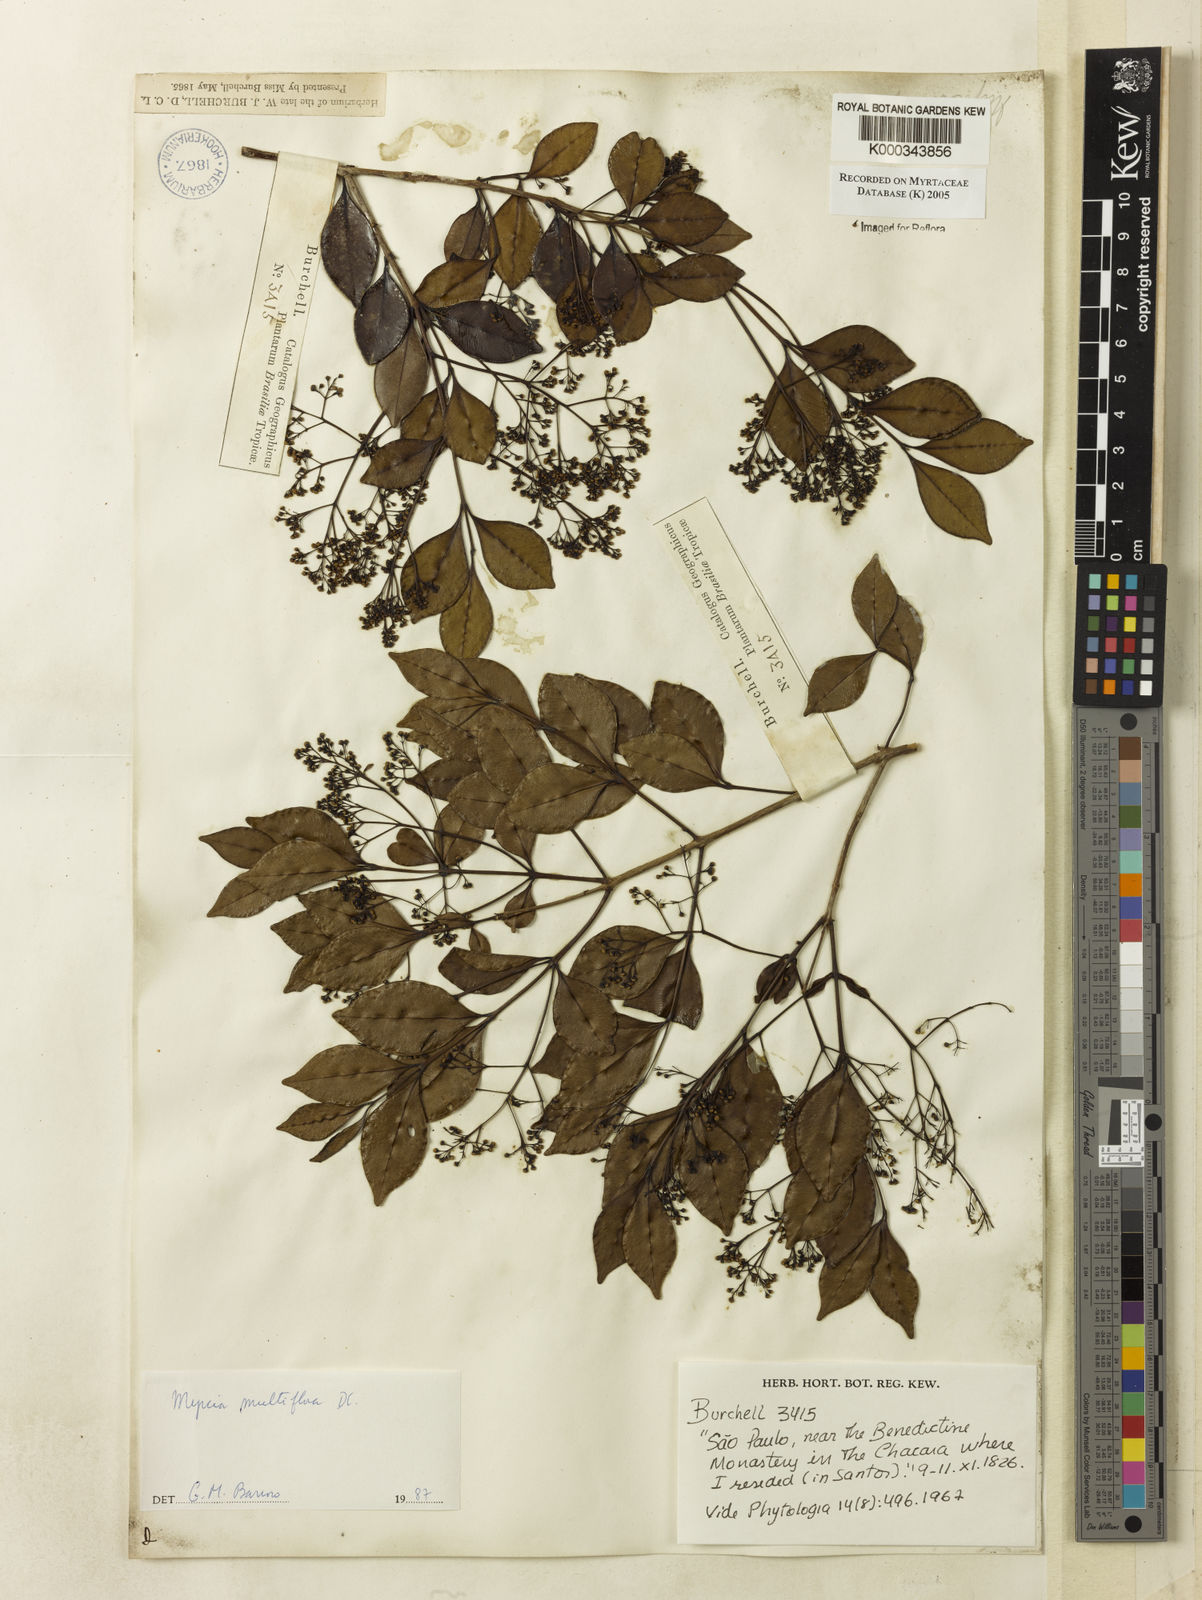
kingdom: Plantae
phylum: Tracheophyta
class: Magnoliopsida
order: Myrtales
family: Myrtaceae
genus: Myrcia
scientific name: Myrcia multiflora
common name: Pedra hume
